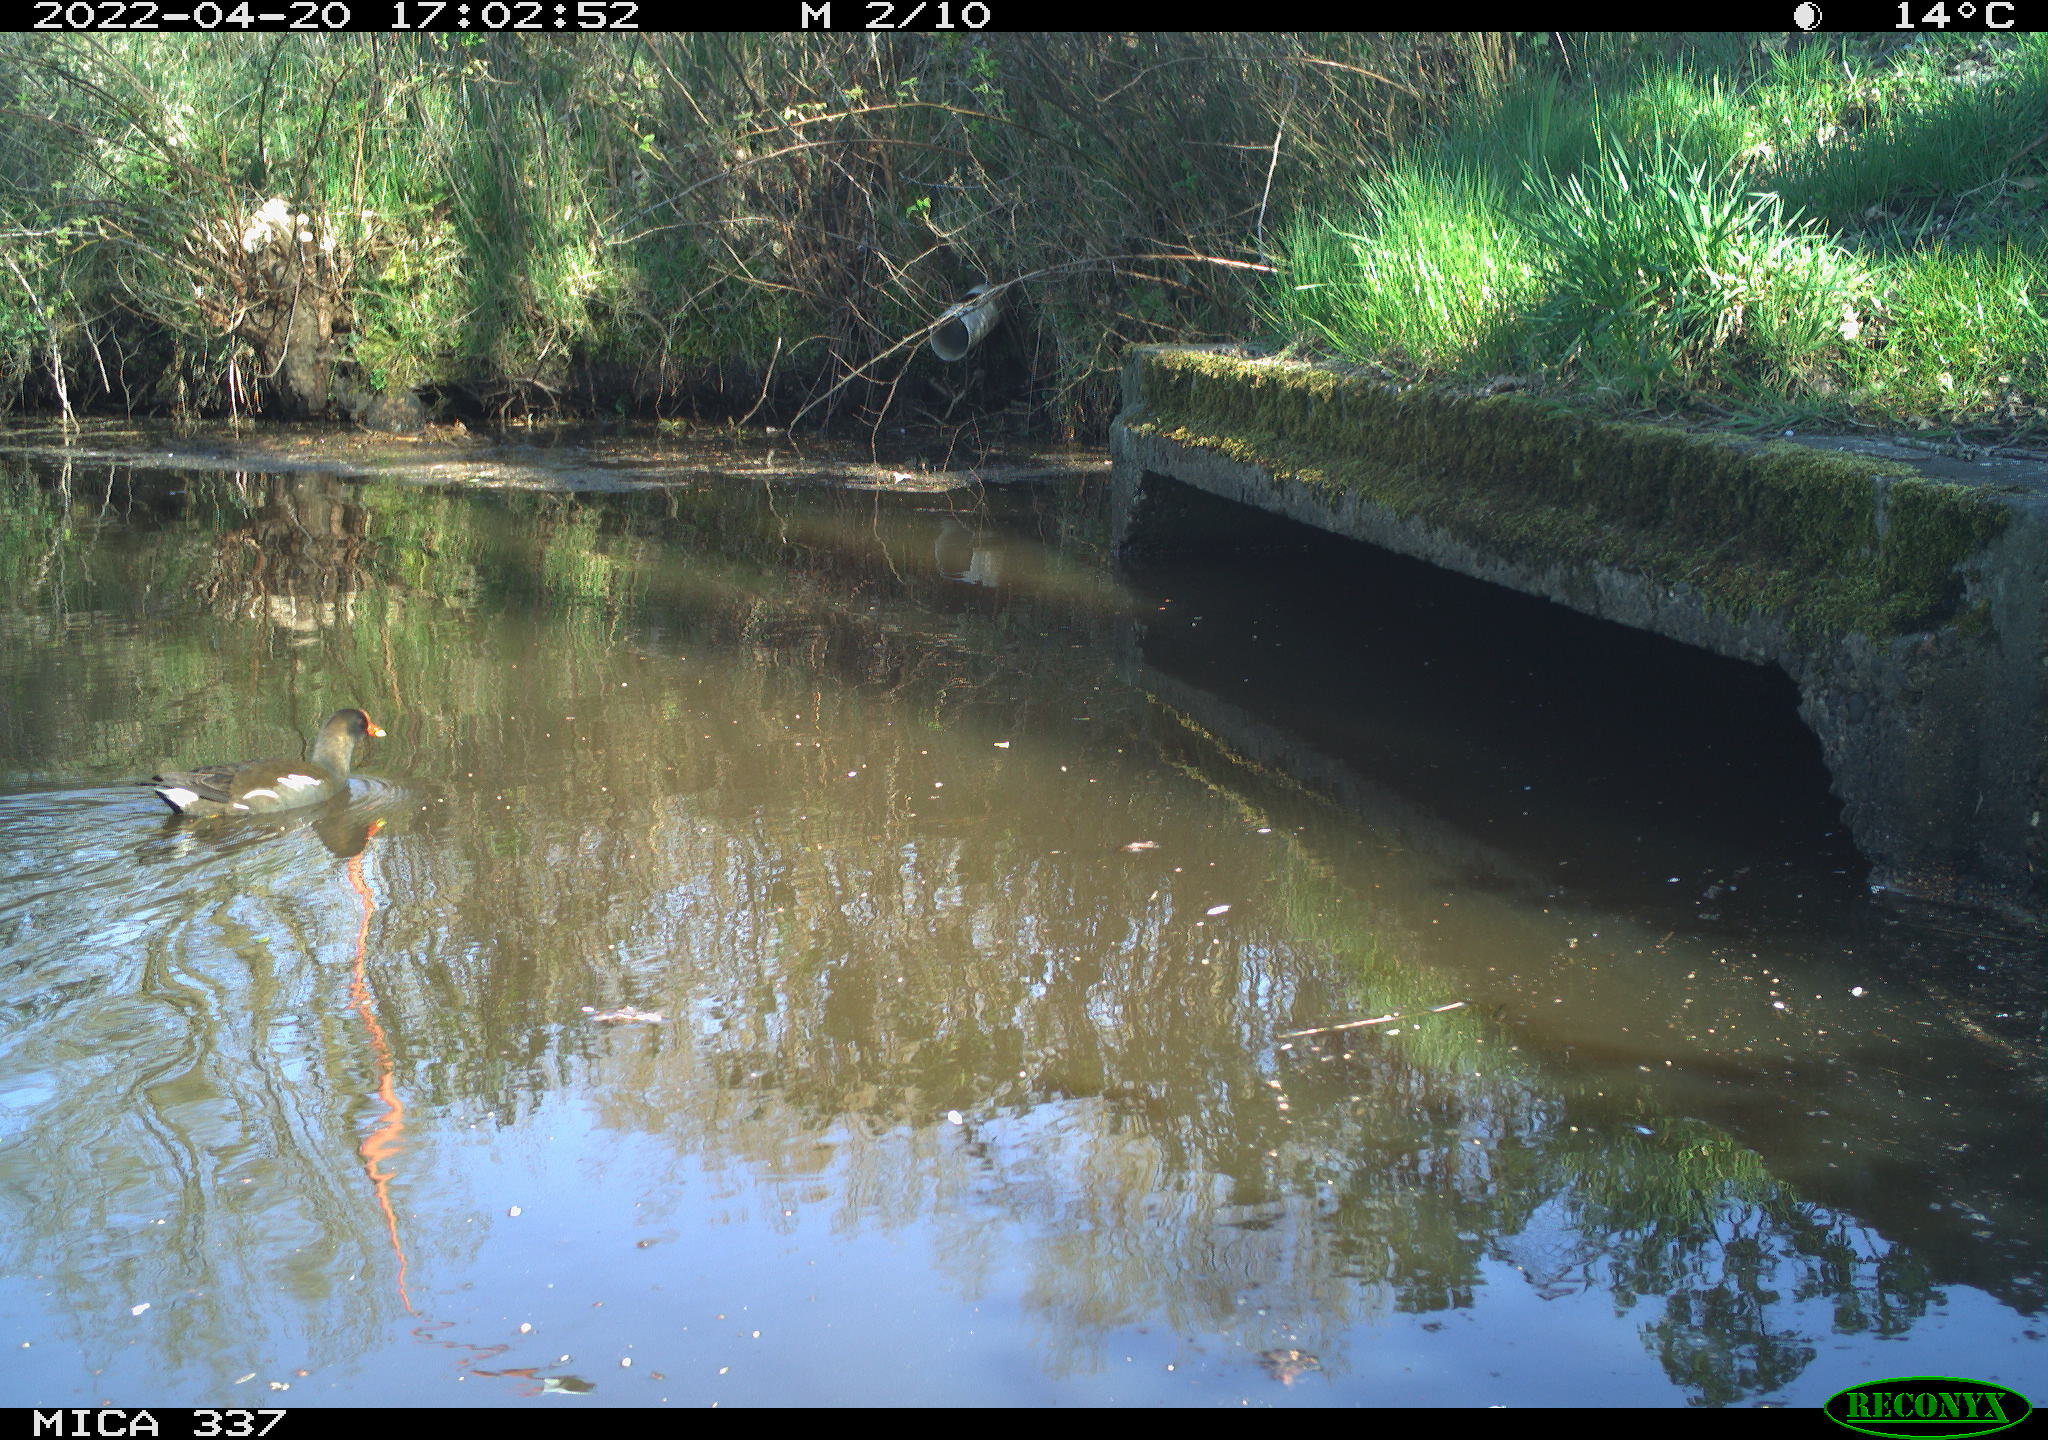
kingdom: Animalia
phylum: Chordata
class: Aves
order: Gruiformes
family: Rallidae
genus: Gallinula
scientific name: Gallinula chloropus
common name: Common moorhen
